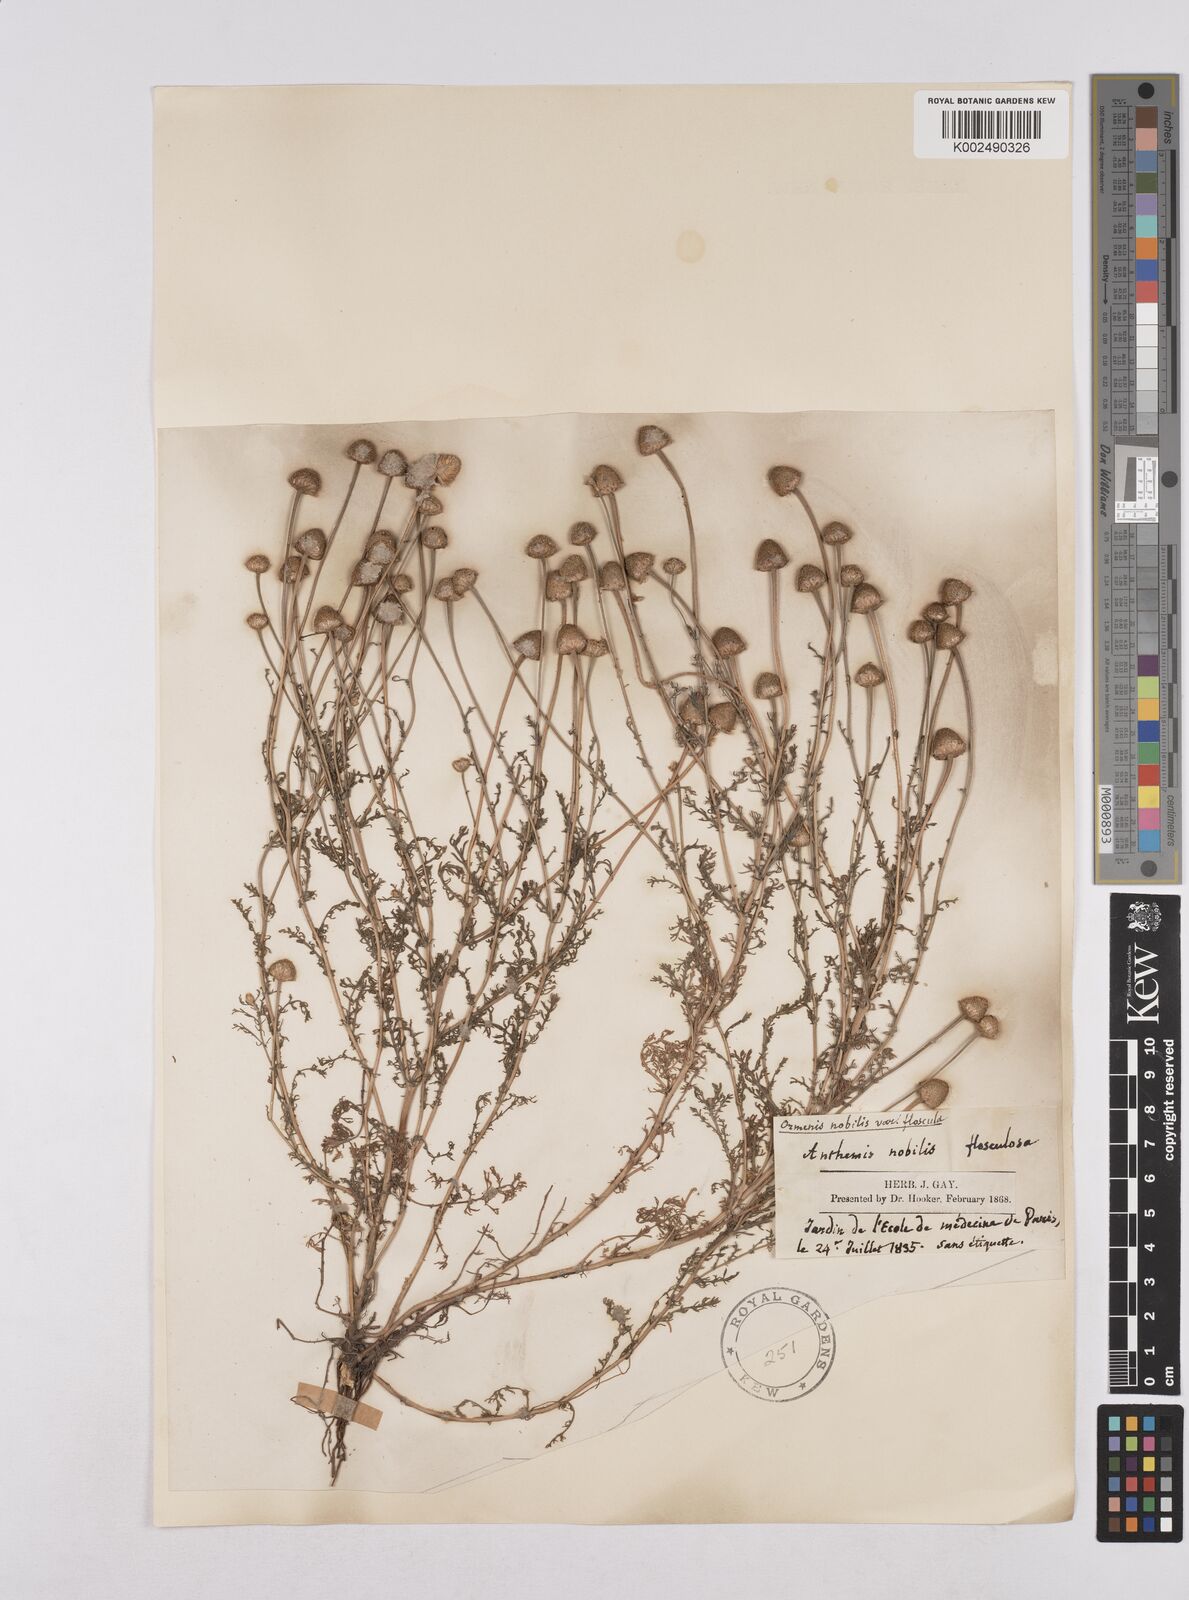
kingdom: Plantae
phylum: Tracheophyta
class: Magnoliopsida
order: Asterales
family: Asteraceae
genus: Matricaria
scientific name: Matricaria chamomilla
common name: Scented mayweed
